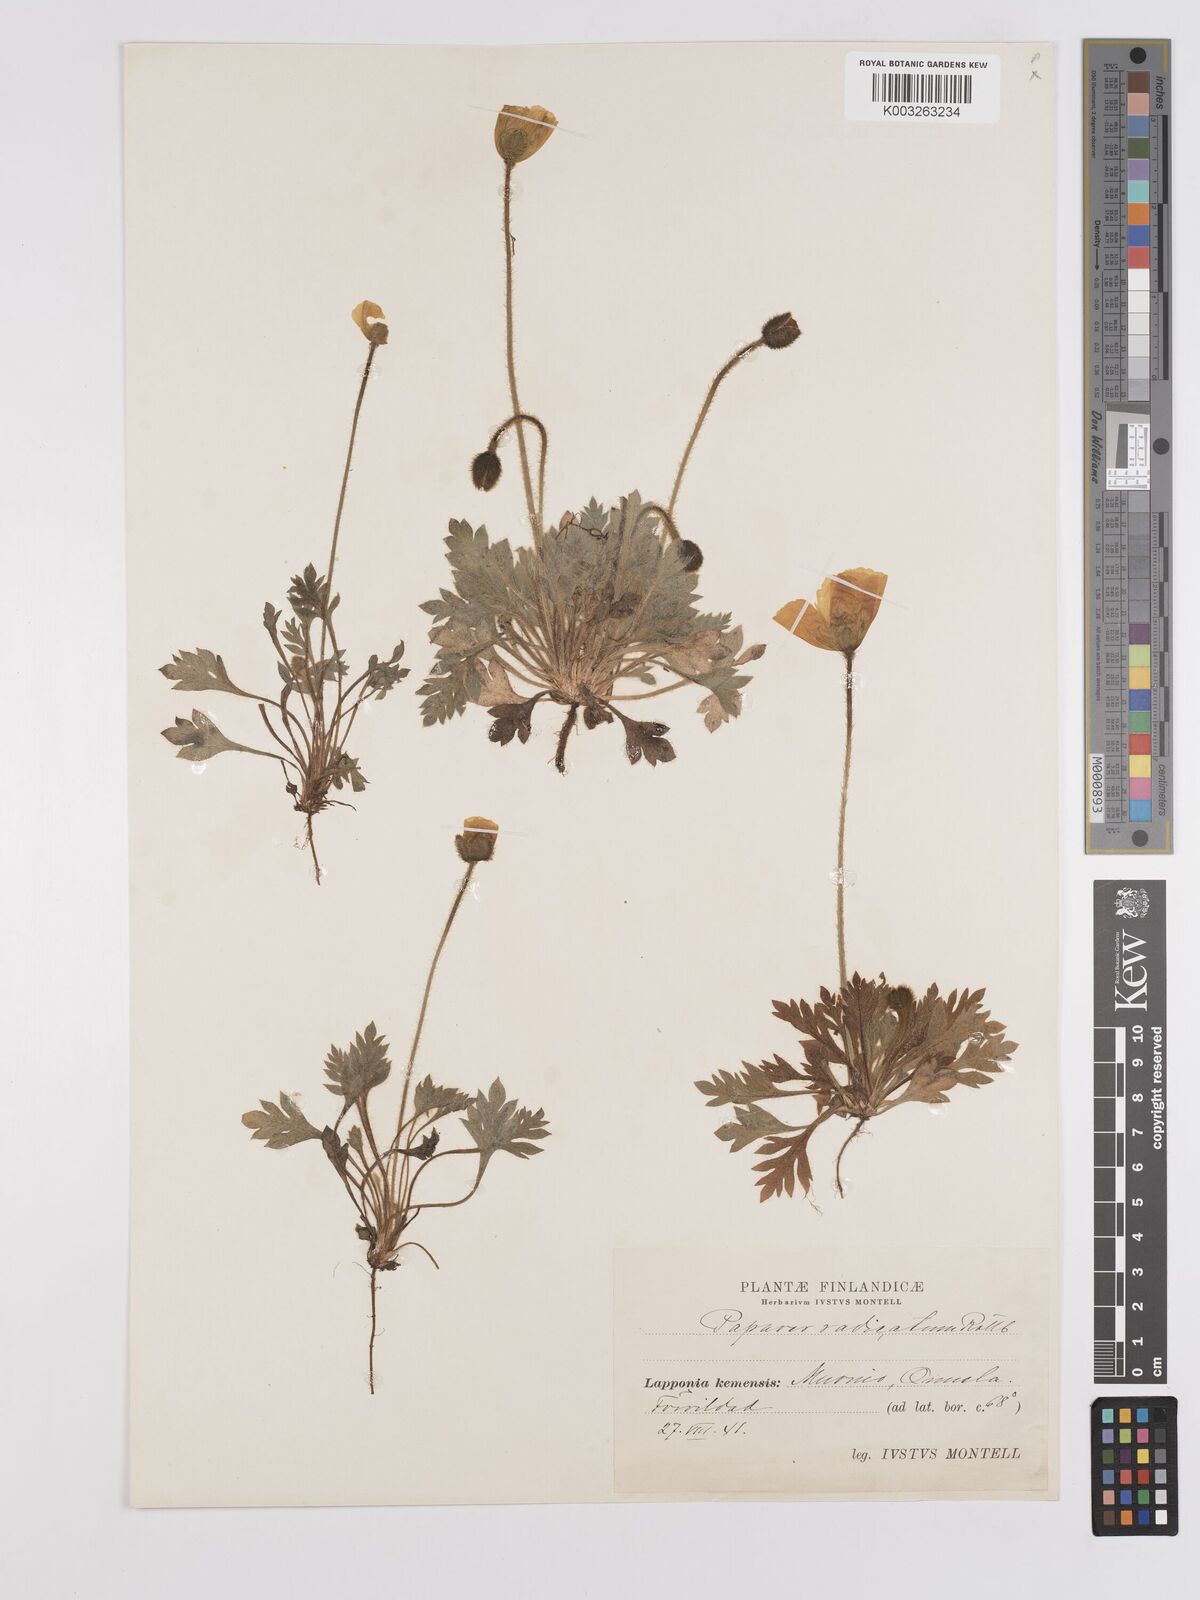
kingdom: Plantae
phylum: Tracheophyta
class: Magnoliopsida
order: Ranunculales
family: Papaveraceae
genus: Papaver
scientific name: Papaver radicatum
